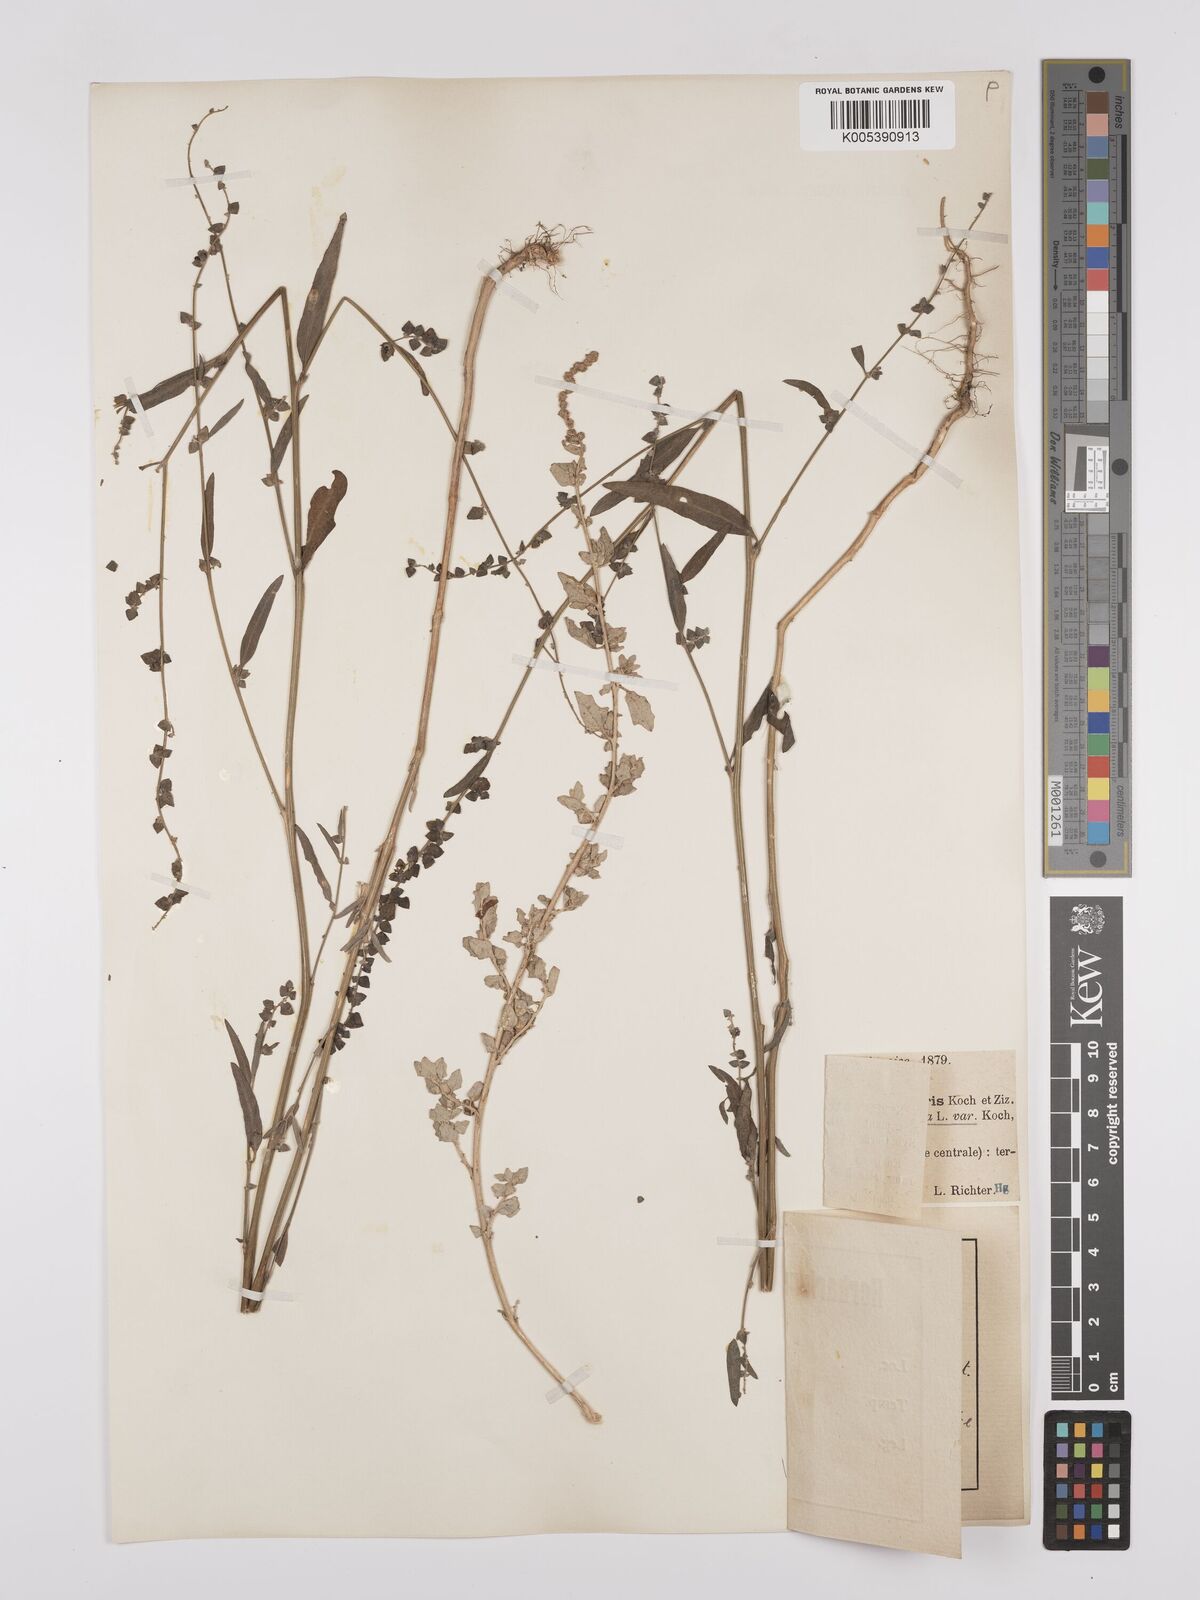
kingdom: Plantae
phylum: Tracheophyta
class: Magnoliopsida
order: Caryophyllales
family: Amaranthaceae
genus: Atriplex
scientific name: Atriplex
